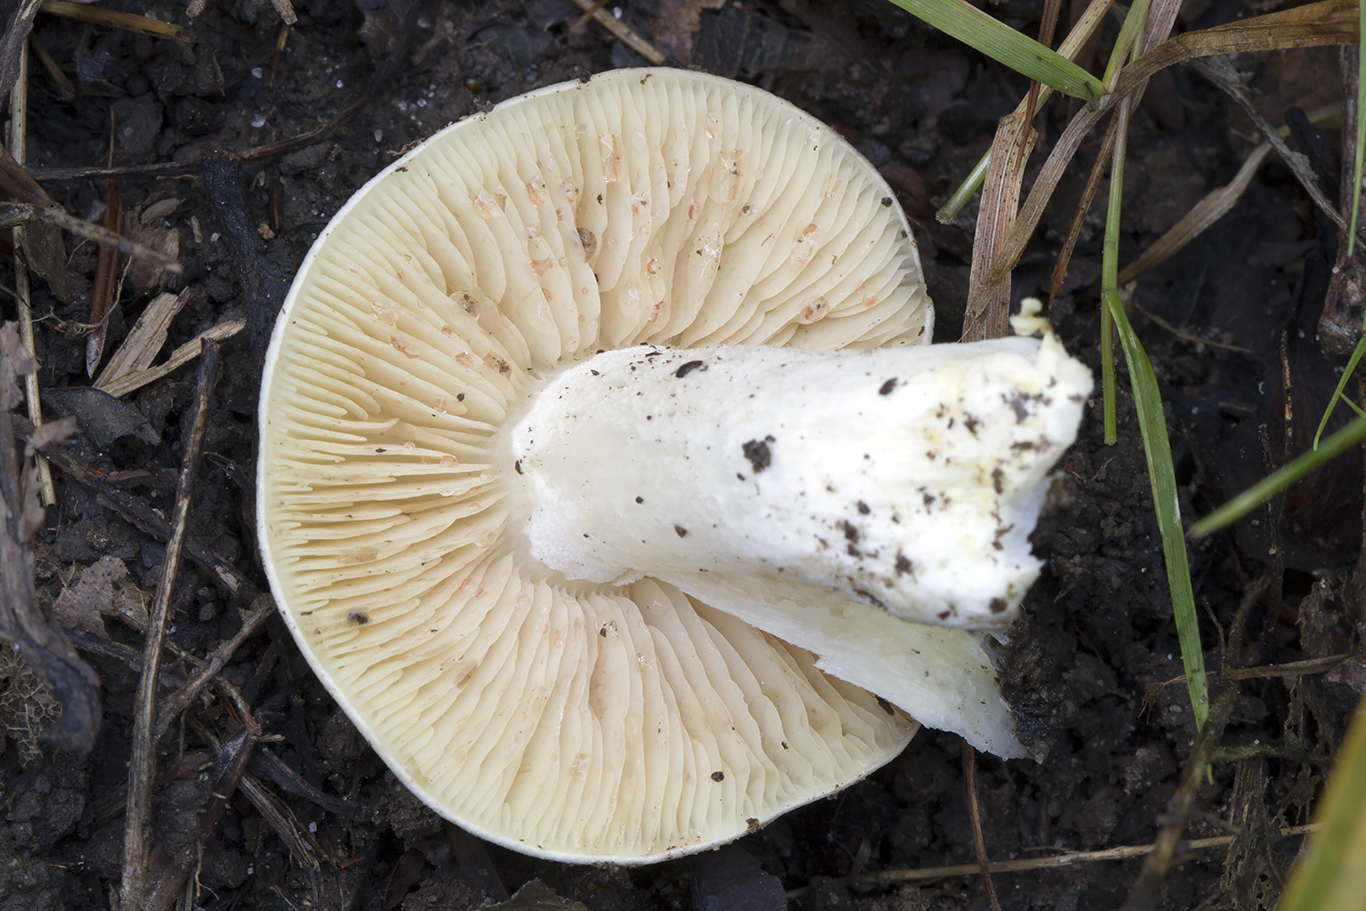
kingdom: Fungi
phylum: Basidiomycota
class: Agaricomycetes
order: Agaricales
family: Entolomataceae
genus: Entoloma
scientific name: Entoloma sinuatum
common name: giftig rødblad
